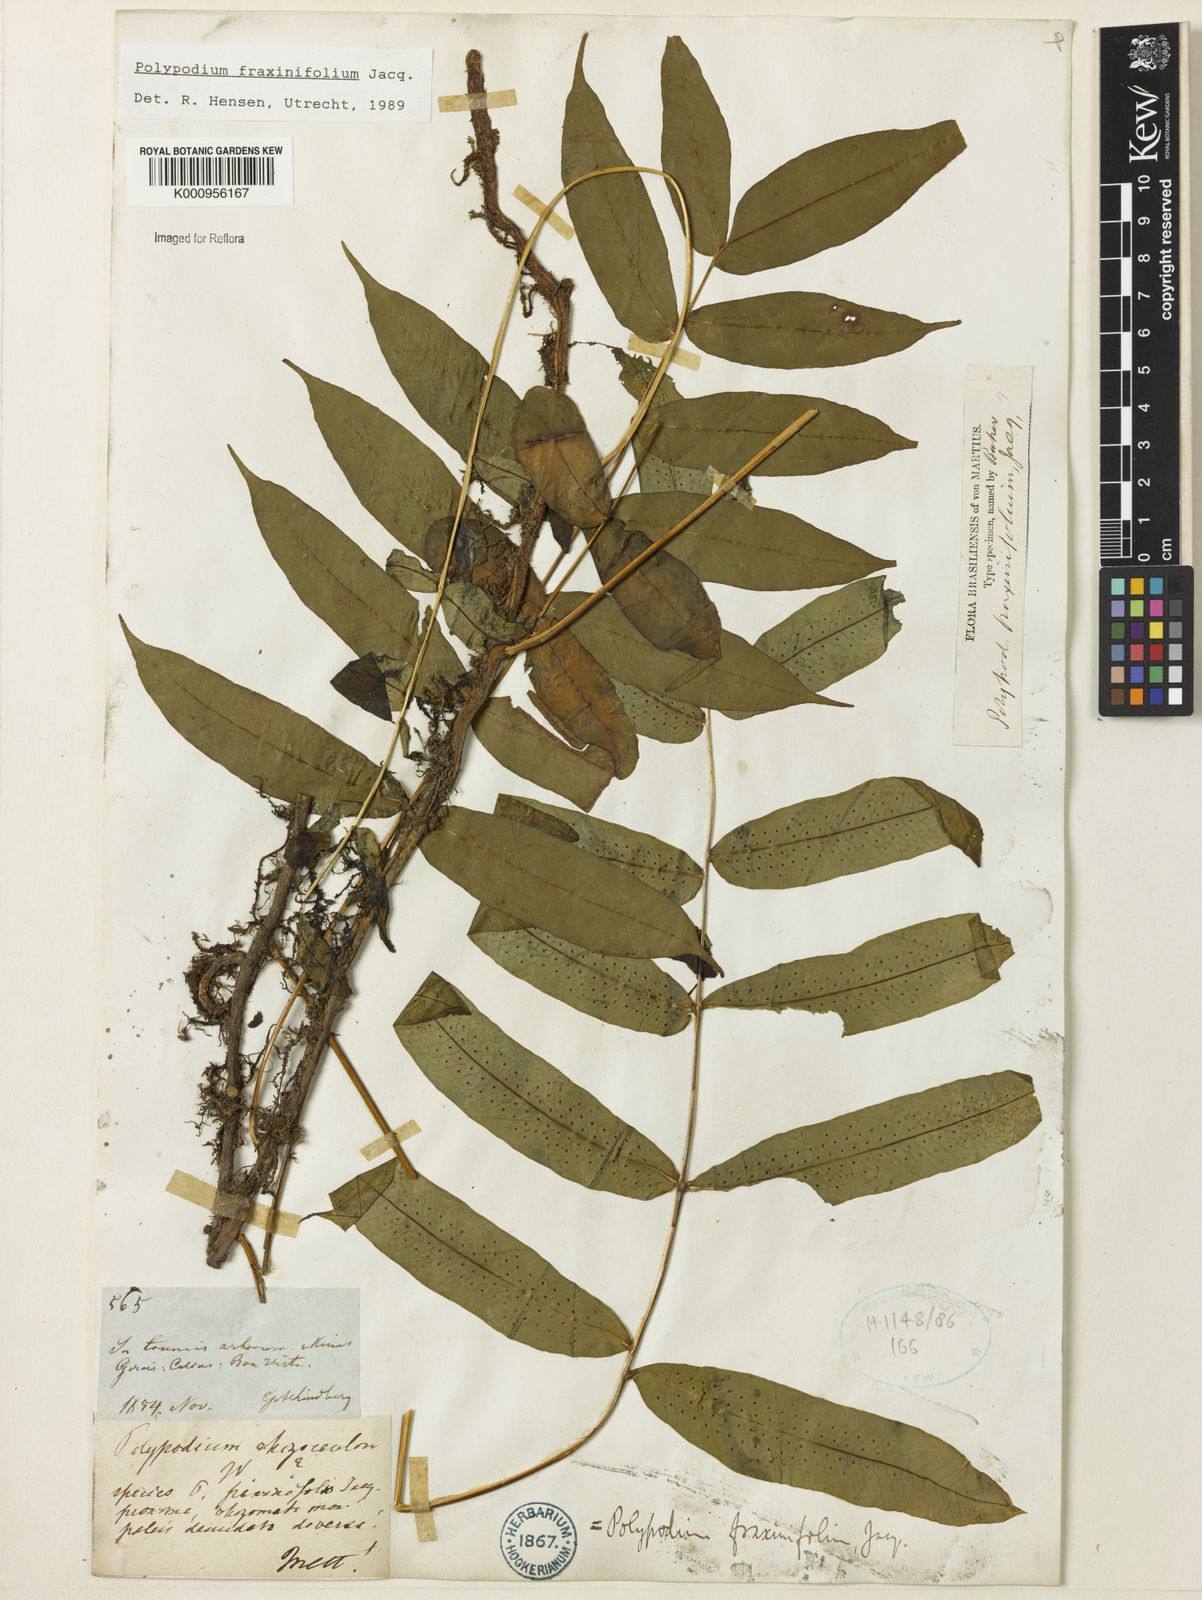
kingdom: Plantae
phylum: Tracheophyta
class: Polypodiopsida
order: Polypodiales
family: Polypodiaceae
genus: Serpocaulon
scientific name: Serpocaulon fraxinifolium
